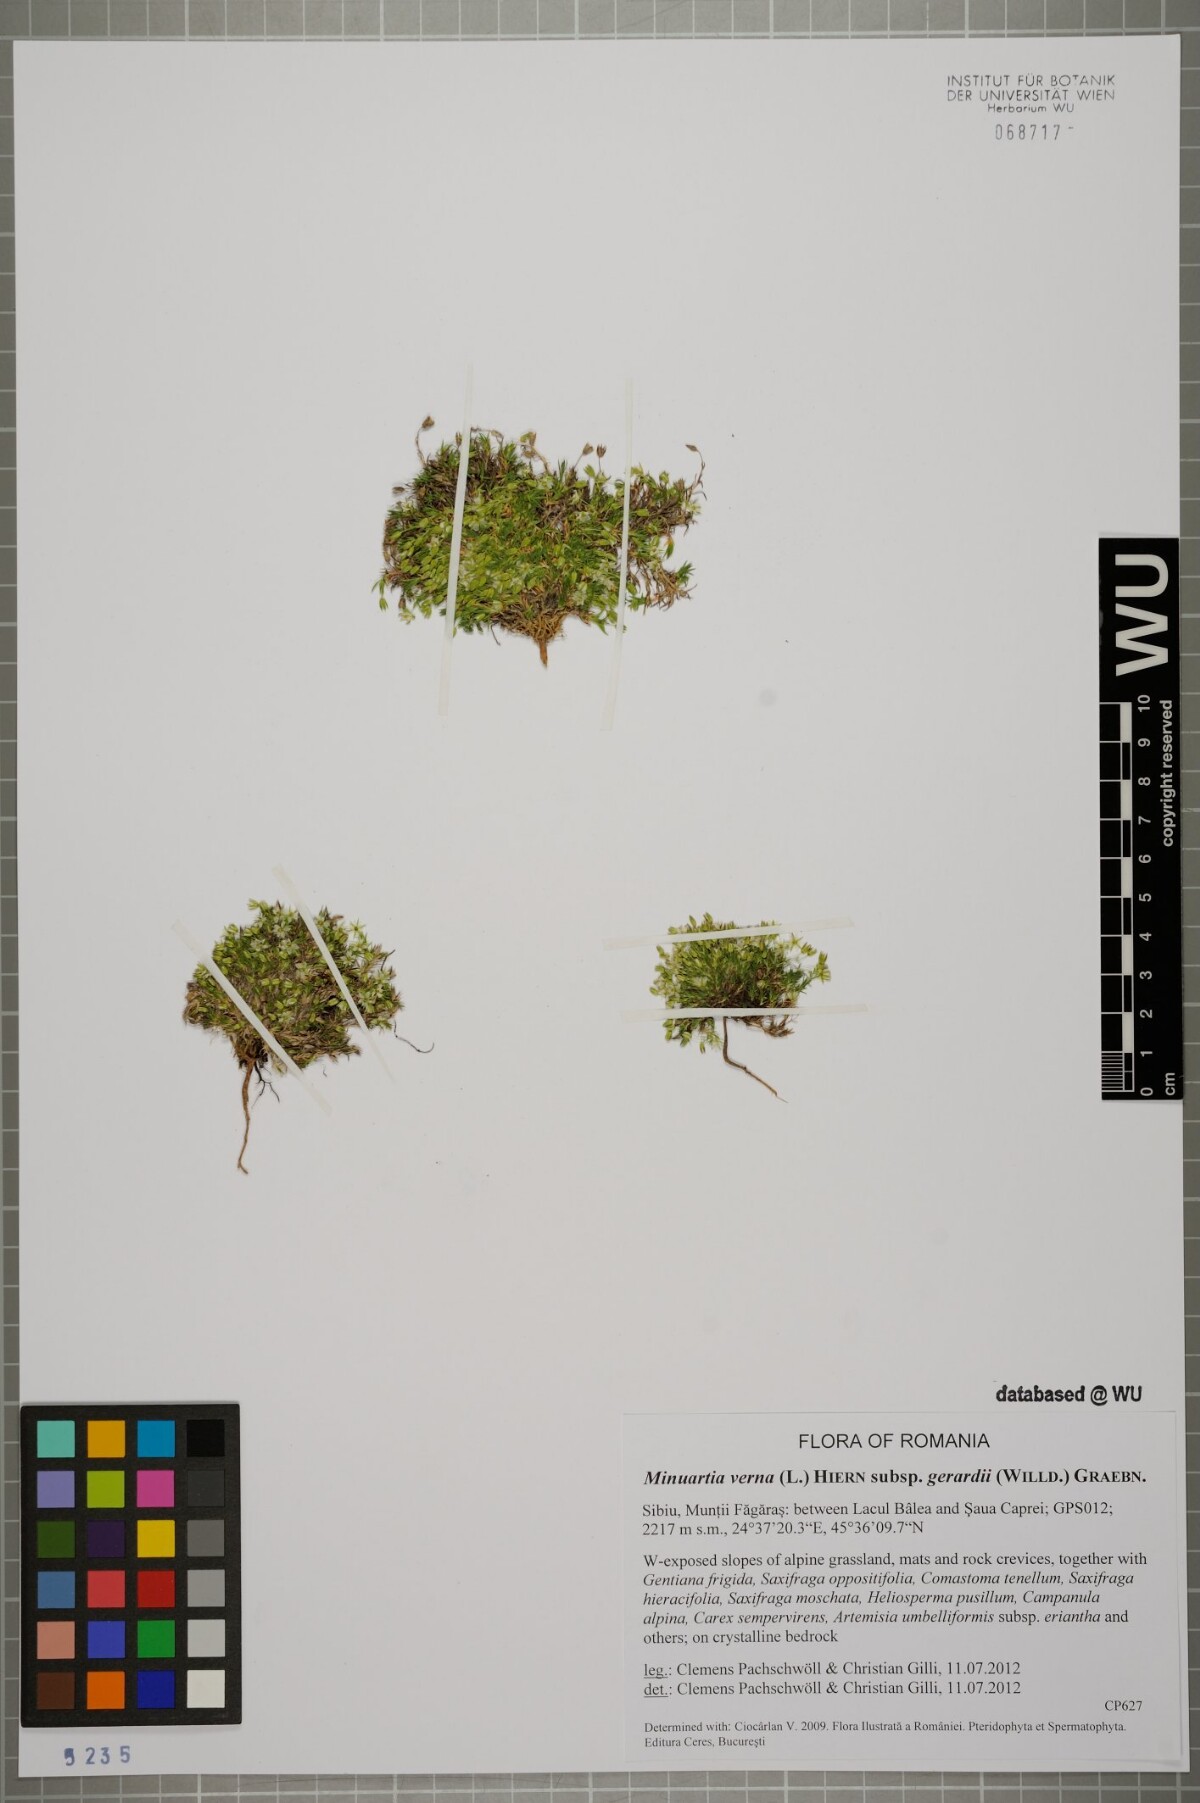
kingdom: Plantae
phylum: Tracheophyta
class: Magnoliopsida
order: Caryophyllales
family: Caryophyllaceae
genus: Sabulina
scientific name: Sabulina verna
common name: Spring sandwort
